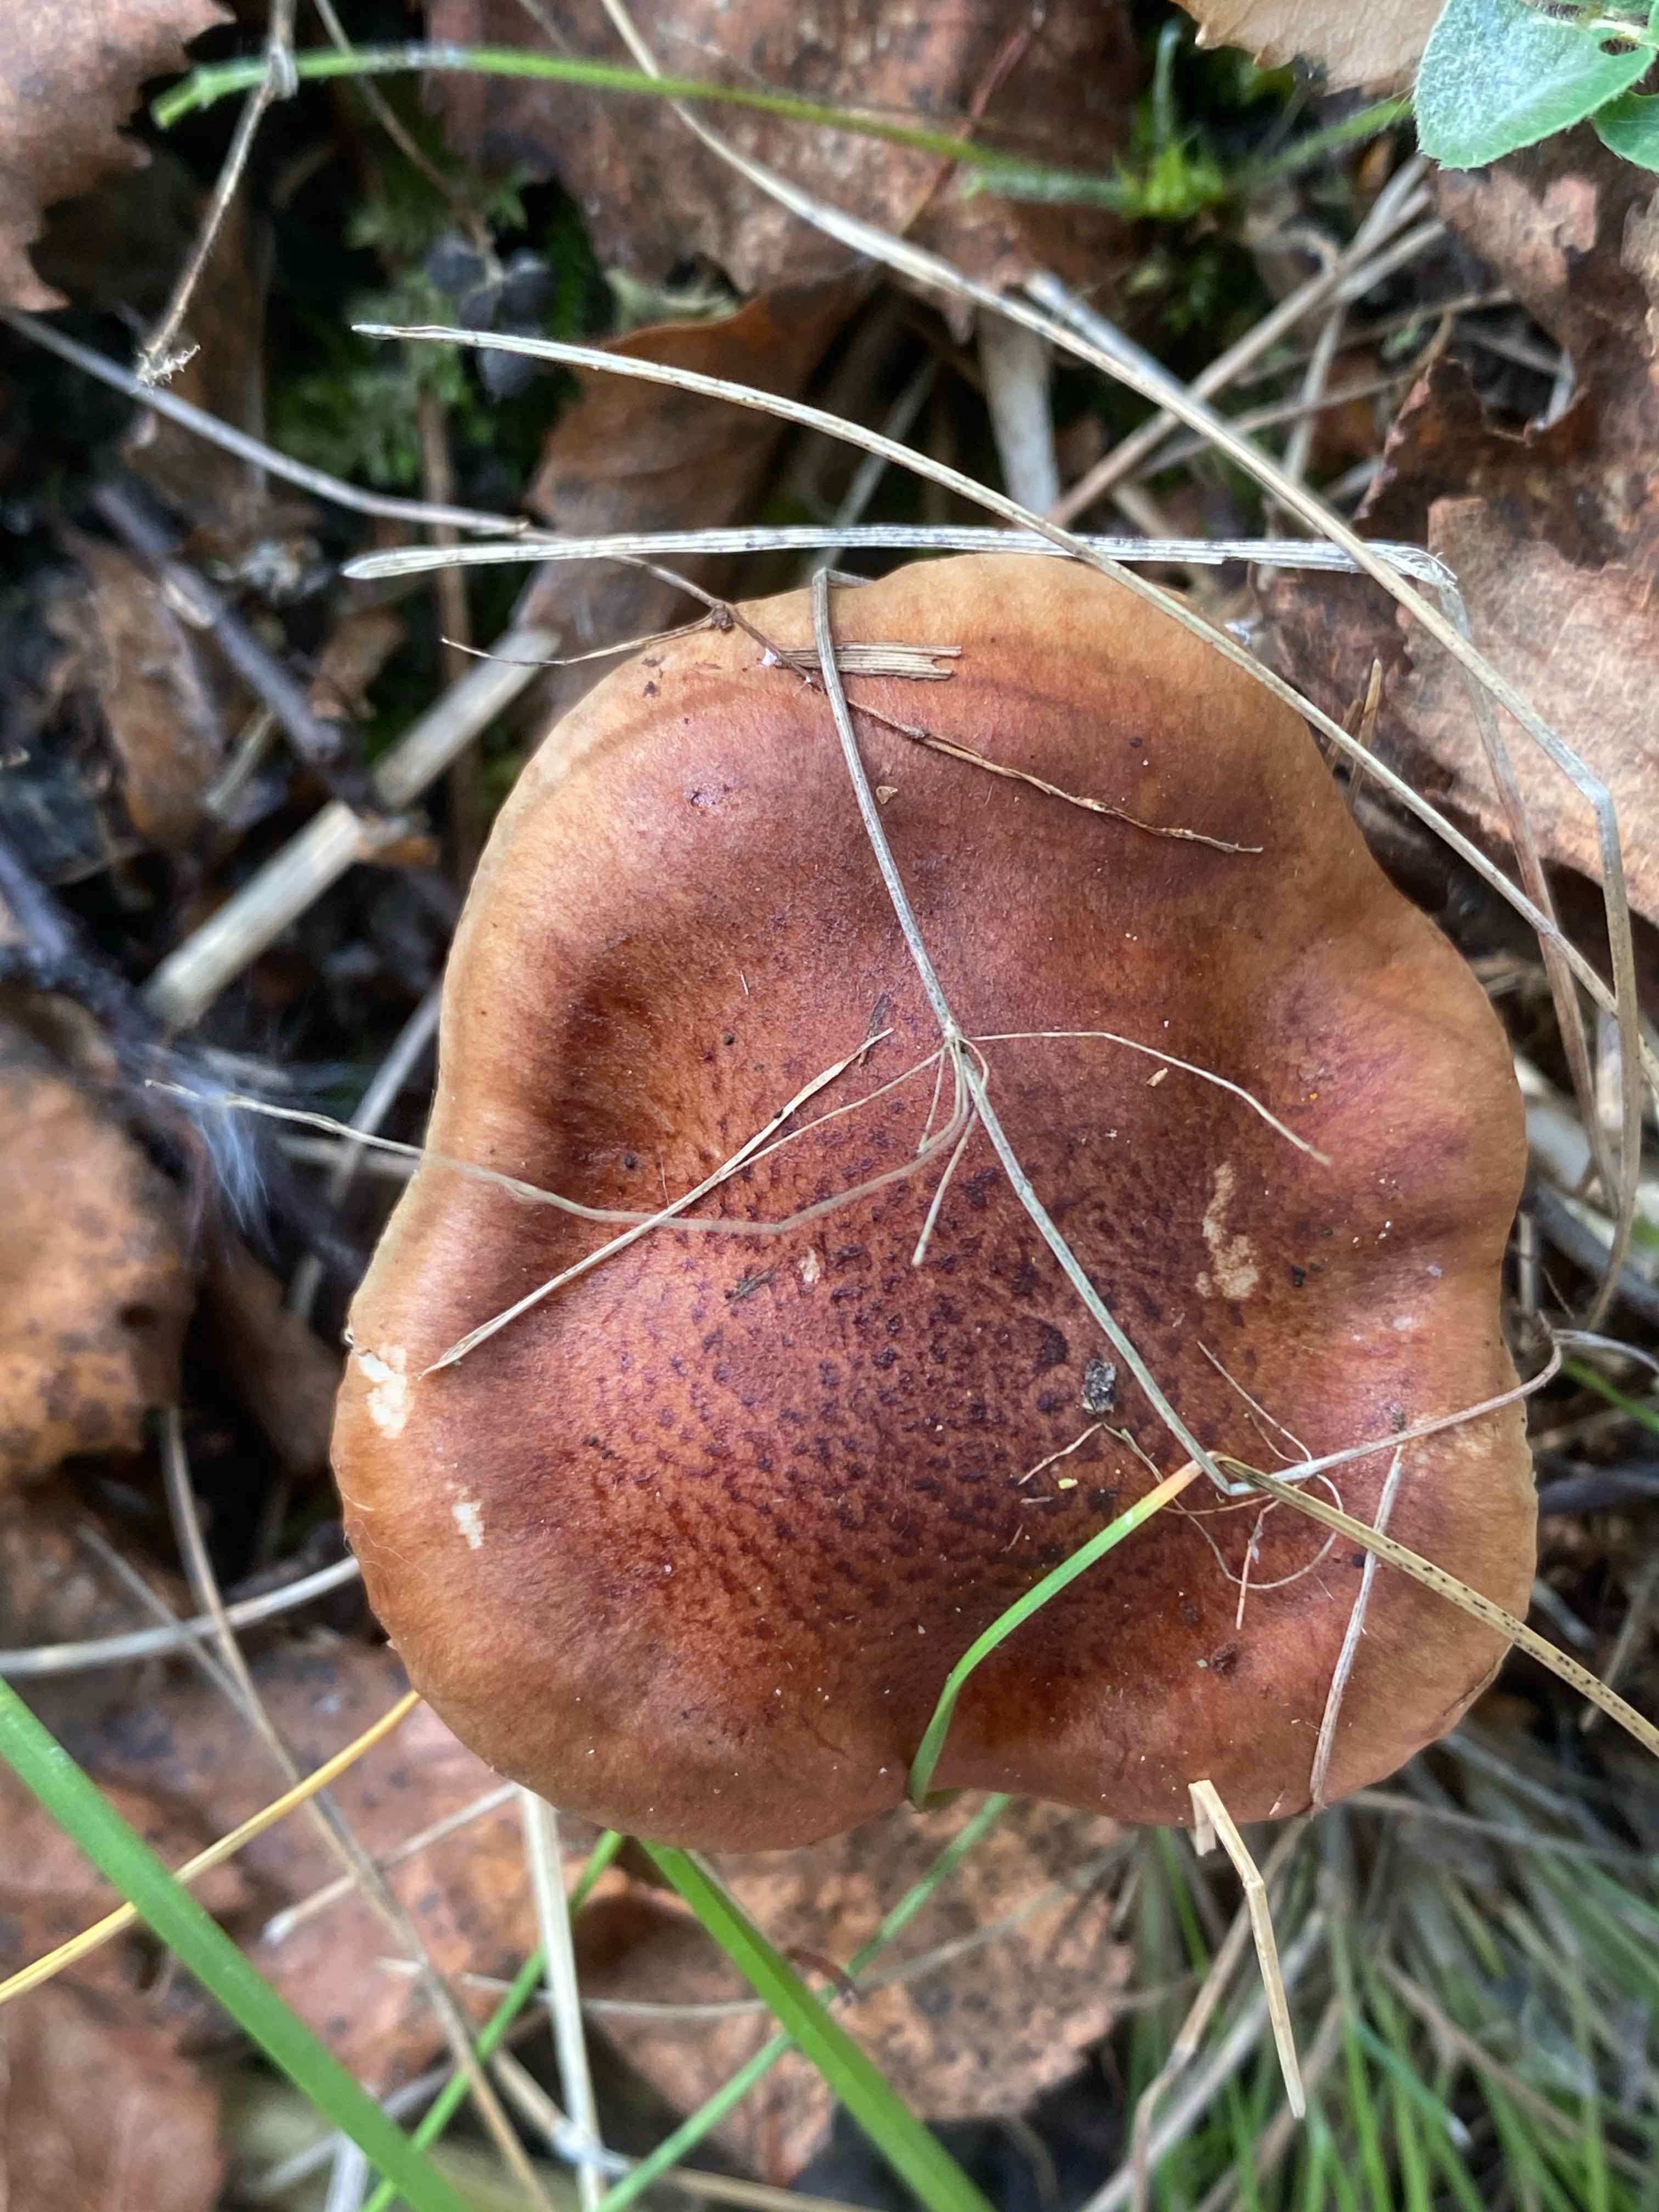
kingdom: Fungi
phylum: Basidiomycota
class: Agaricomycetes
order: Agaricales
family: Tricholomataceae
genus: Tricholoma
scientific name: Tricholoma fulvum
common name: birke-ridderhat
